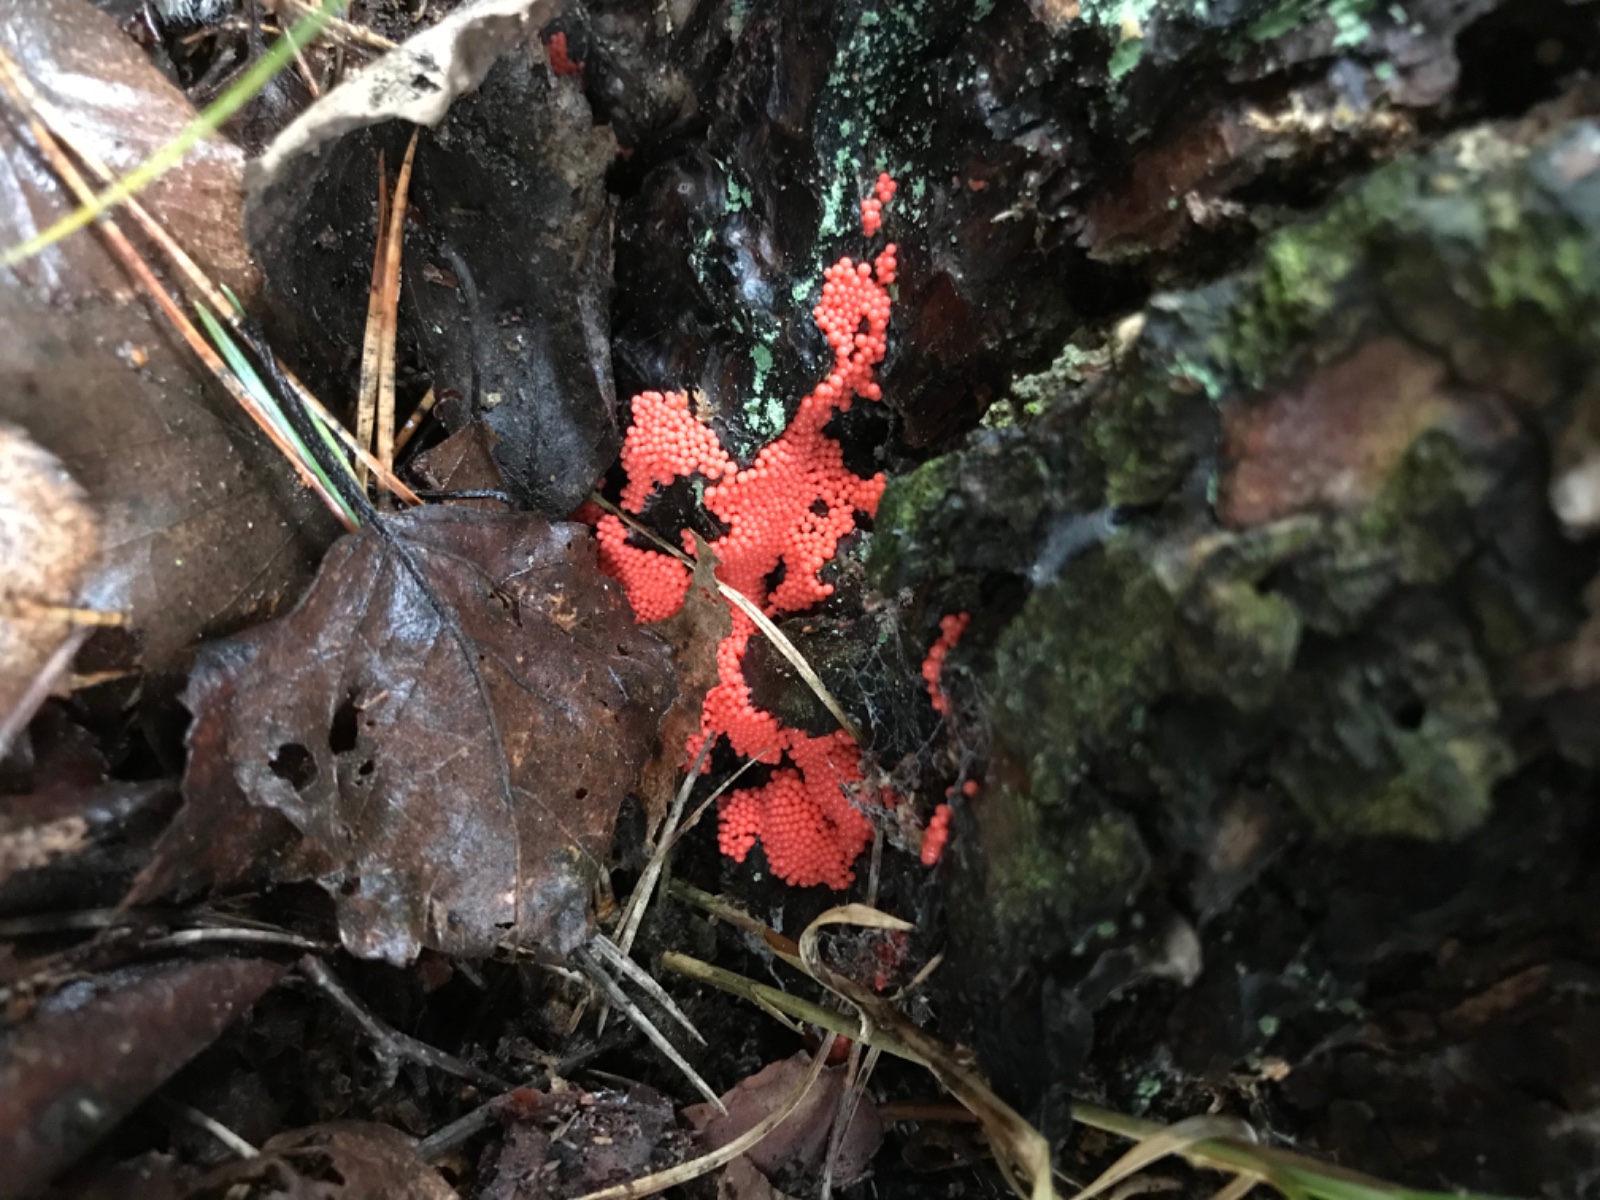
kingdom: Protozoa
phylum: Mycetozoa
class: Myxomycetes
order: Trichiales
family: Arcyriaceae
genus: Arcyria
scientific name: Arcyria ferruginea
